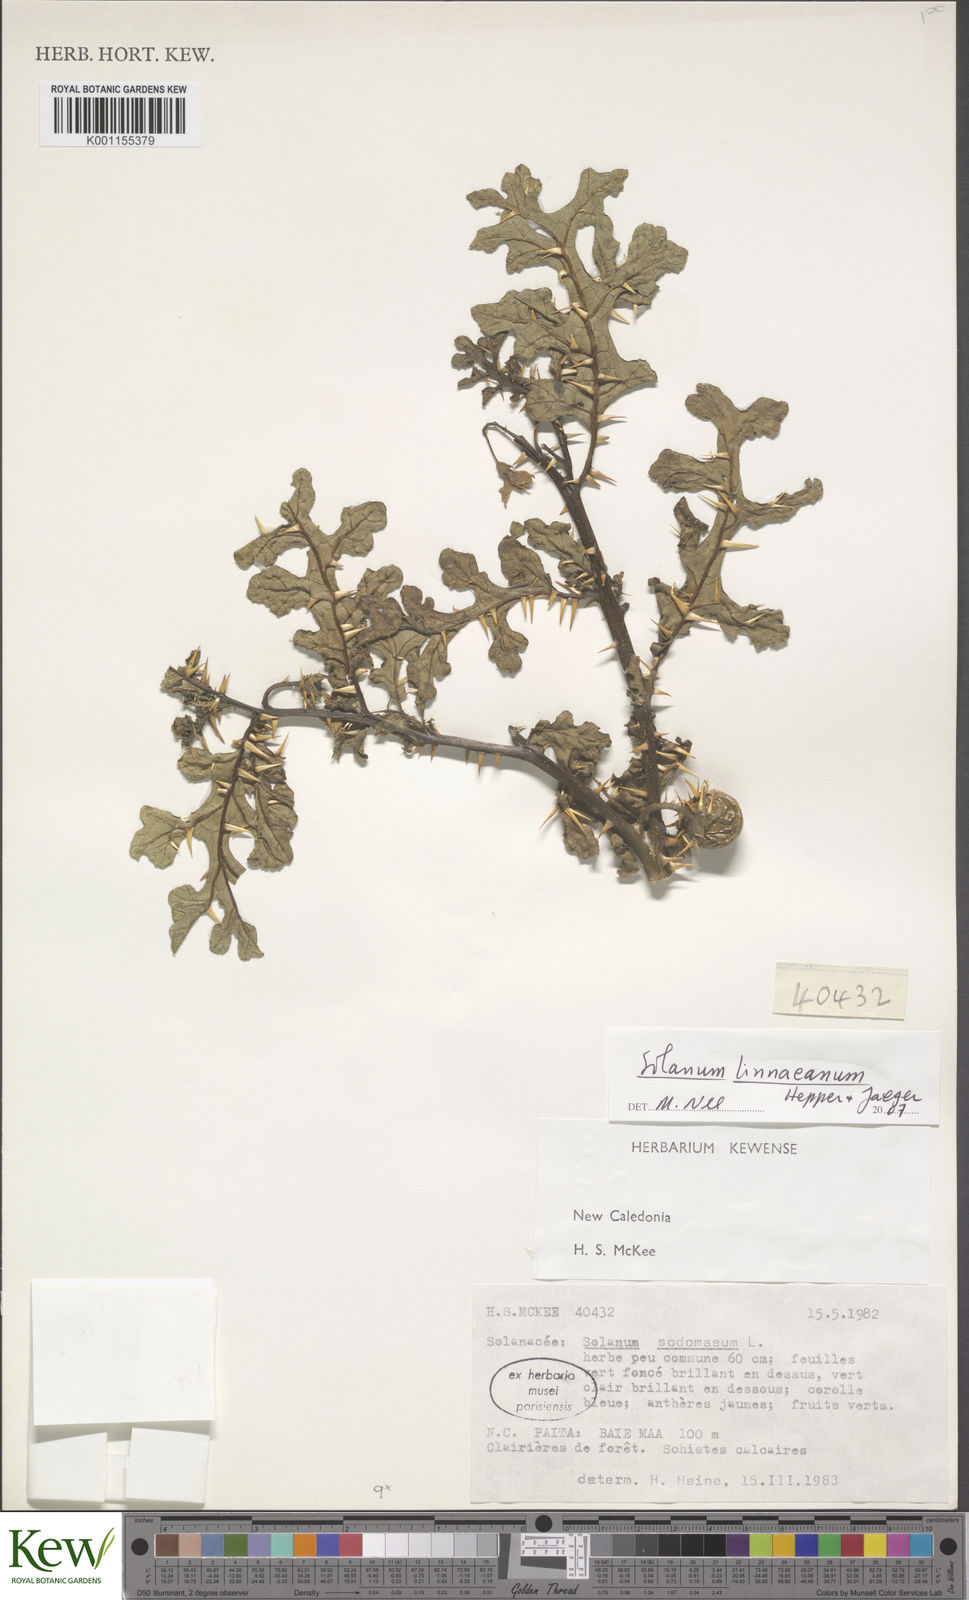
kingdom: Plantae
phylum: Tracheophyta
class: Magnoliopsida
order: Solanales
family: Solanaceae
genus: Solanum
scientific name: Solanum linnaeanum
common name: Nightshade
